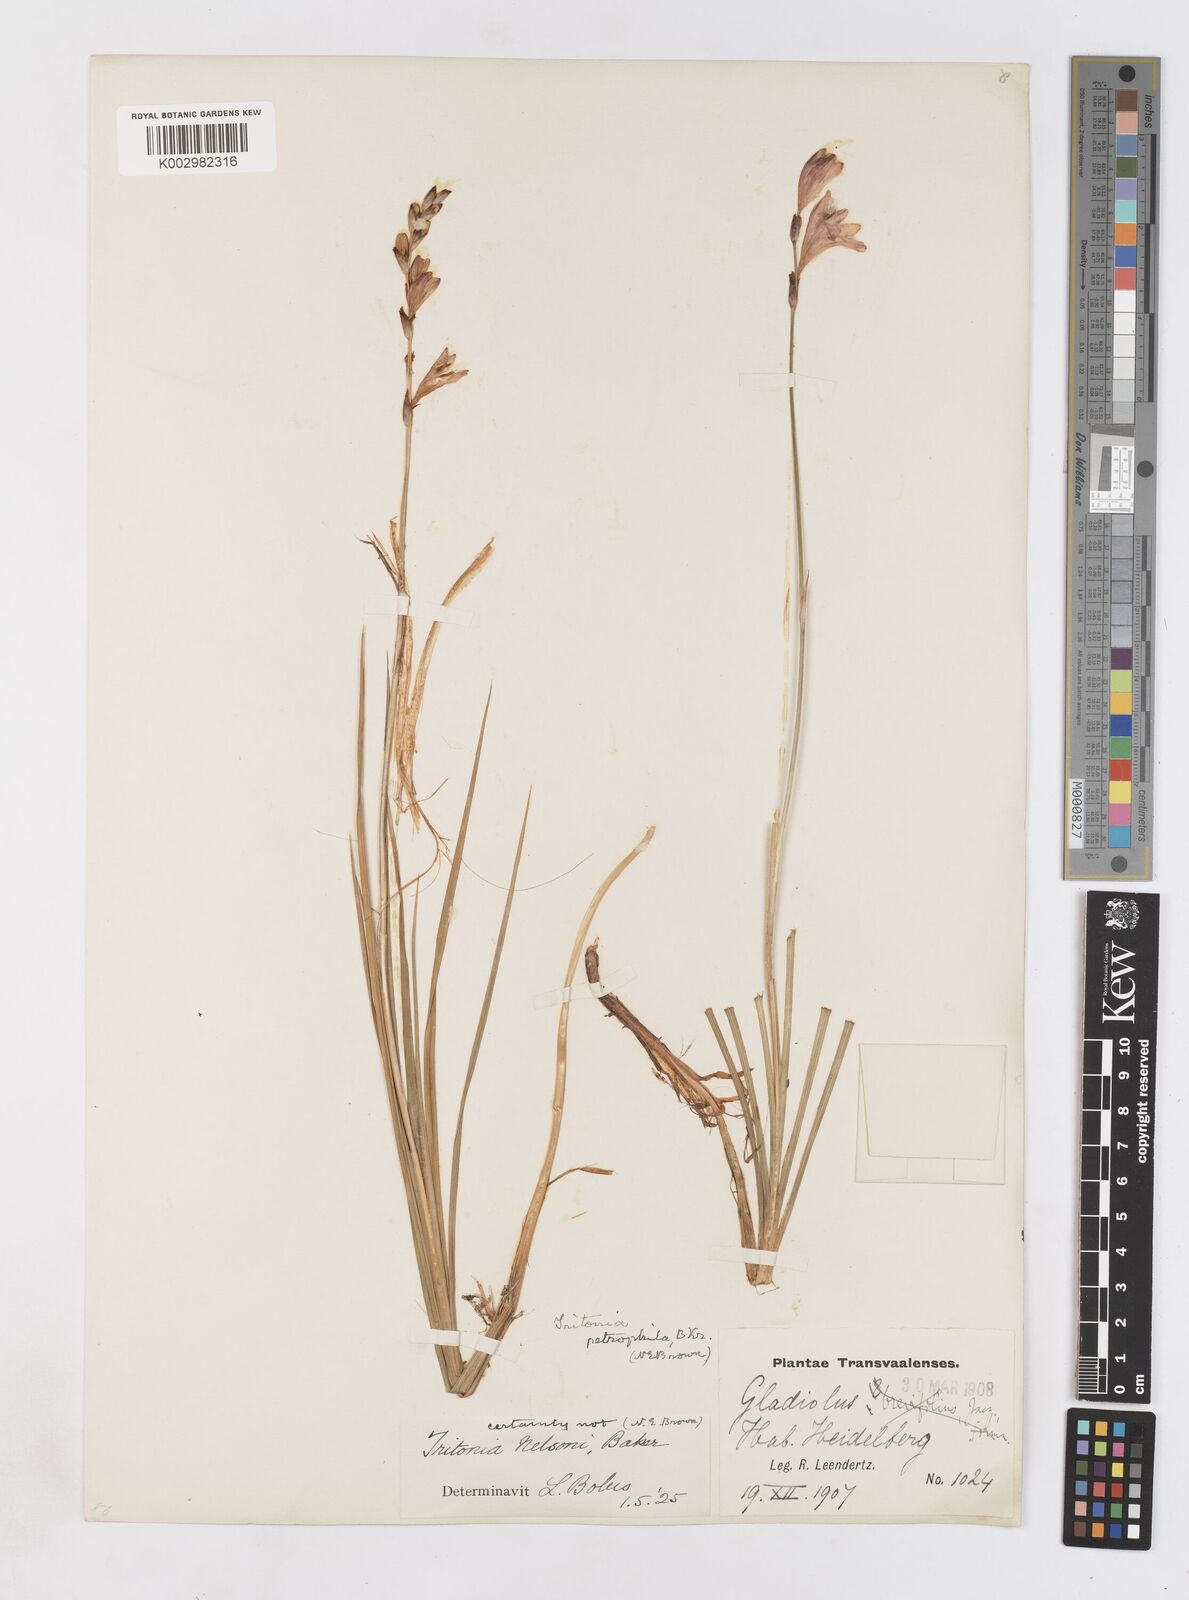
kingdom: Plantae
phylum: Tracheophyta
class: Liliopsida
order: Asparagales
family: Iridaceae
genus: Tritonia
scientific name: Tritonia nelsonii
